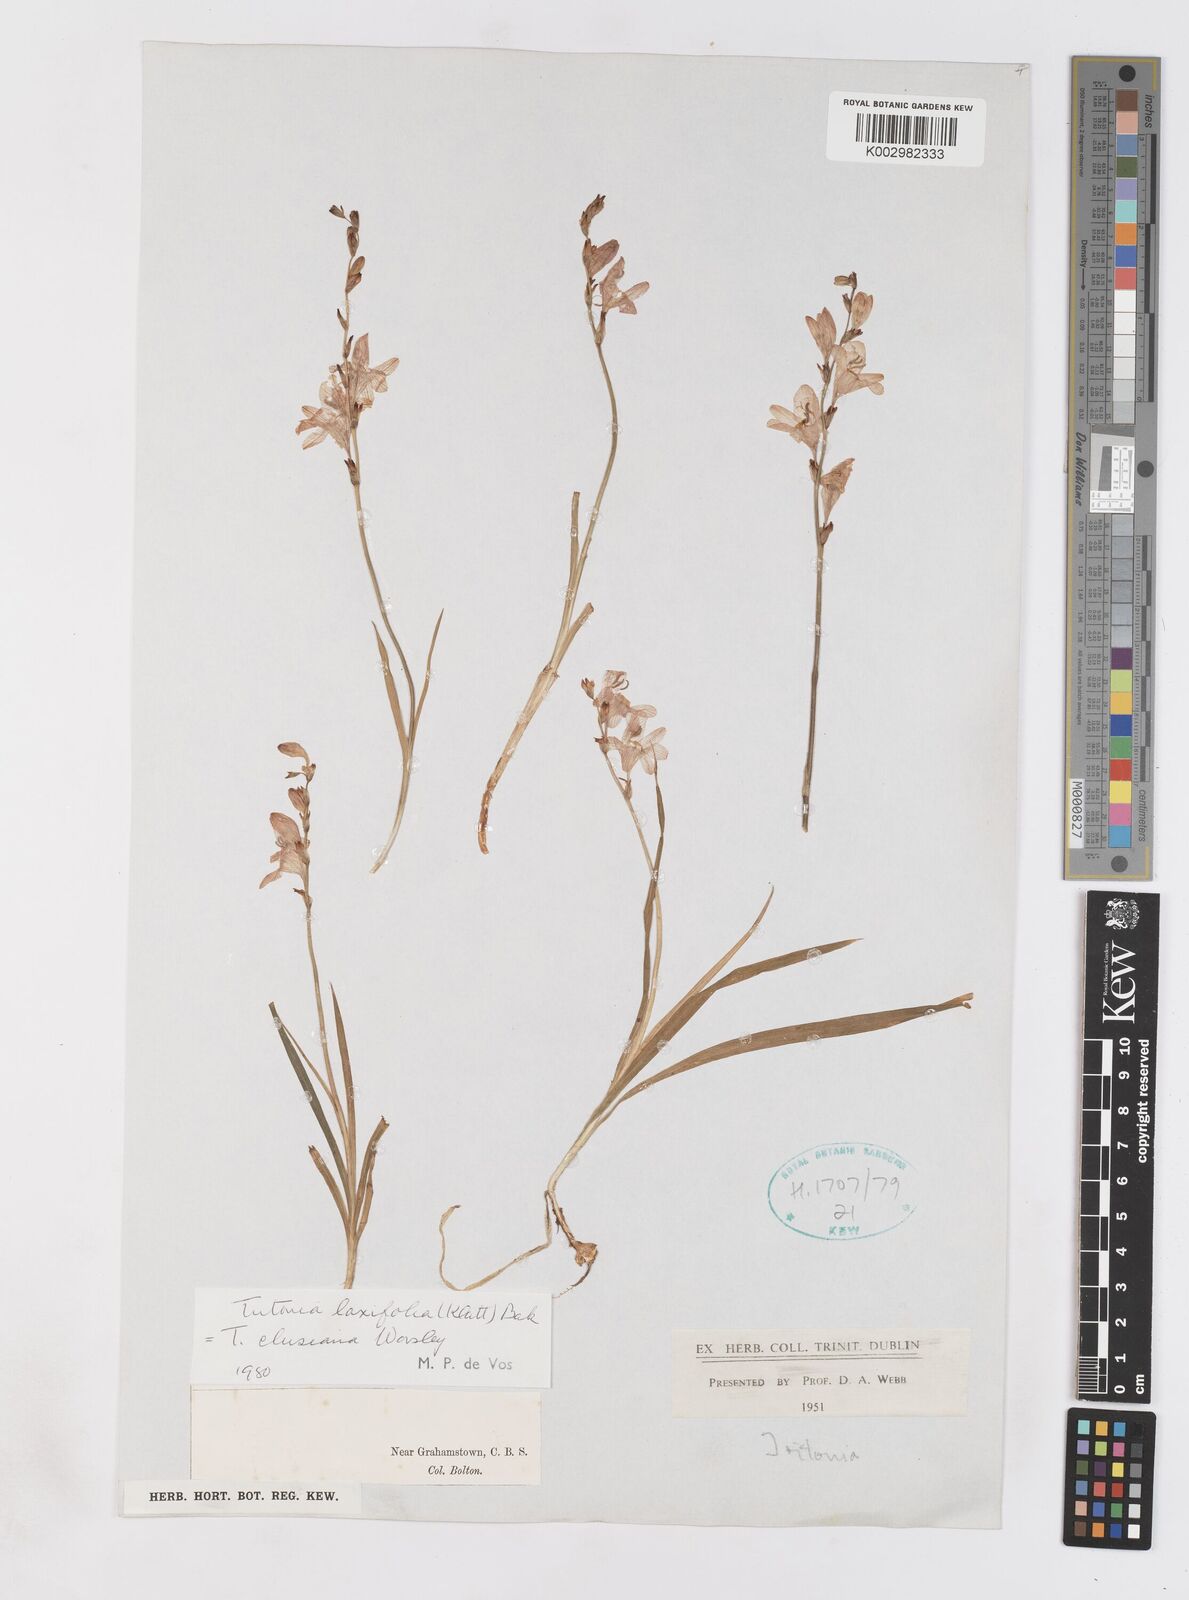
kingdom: Plantae
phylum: Tracheophyta
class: Liliopsida
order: Asparagales
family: Iridaceae
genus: Tritonia
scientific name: Tritonia laxifolia
